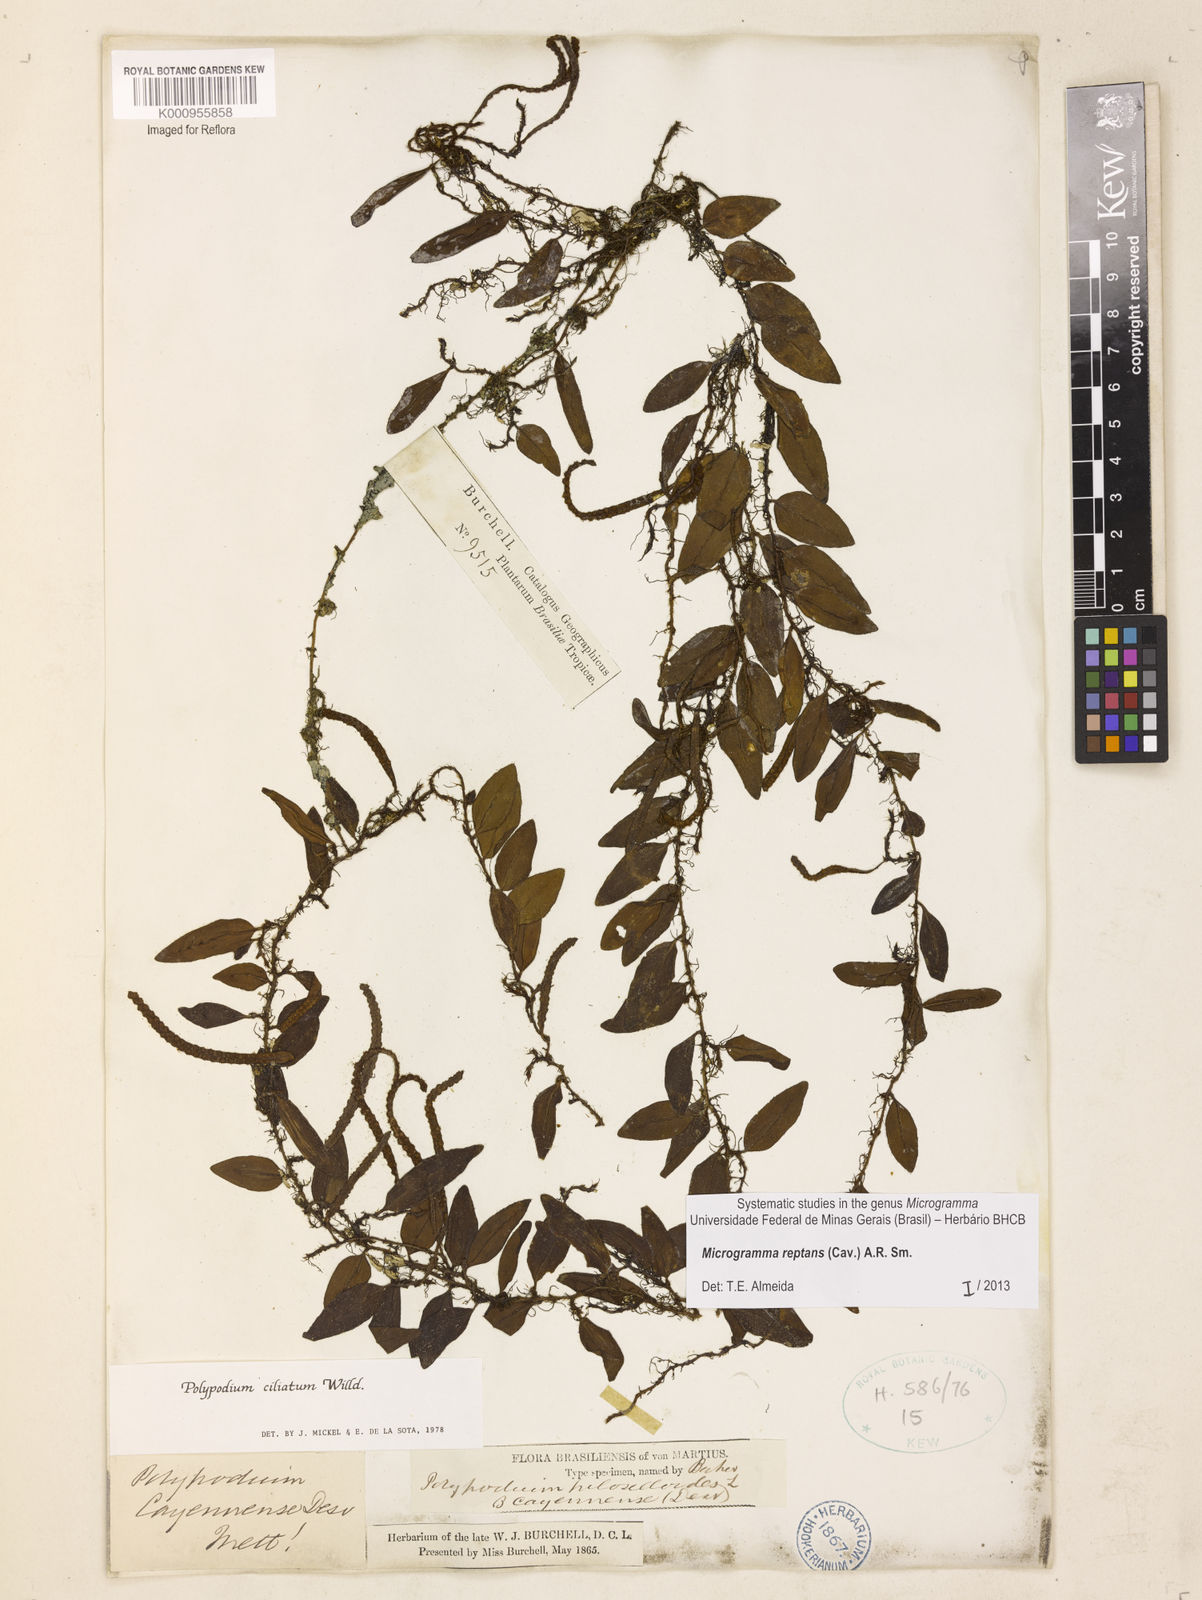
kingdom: Plantae
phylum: Tracheophyta
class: Polypodiopsida
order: Polypodiales
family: Polypodiaceae
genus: Microgramma
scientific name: Microgramma reptans
